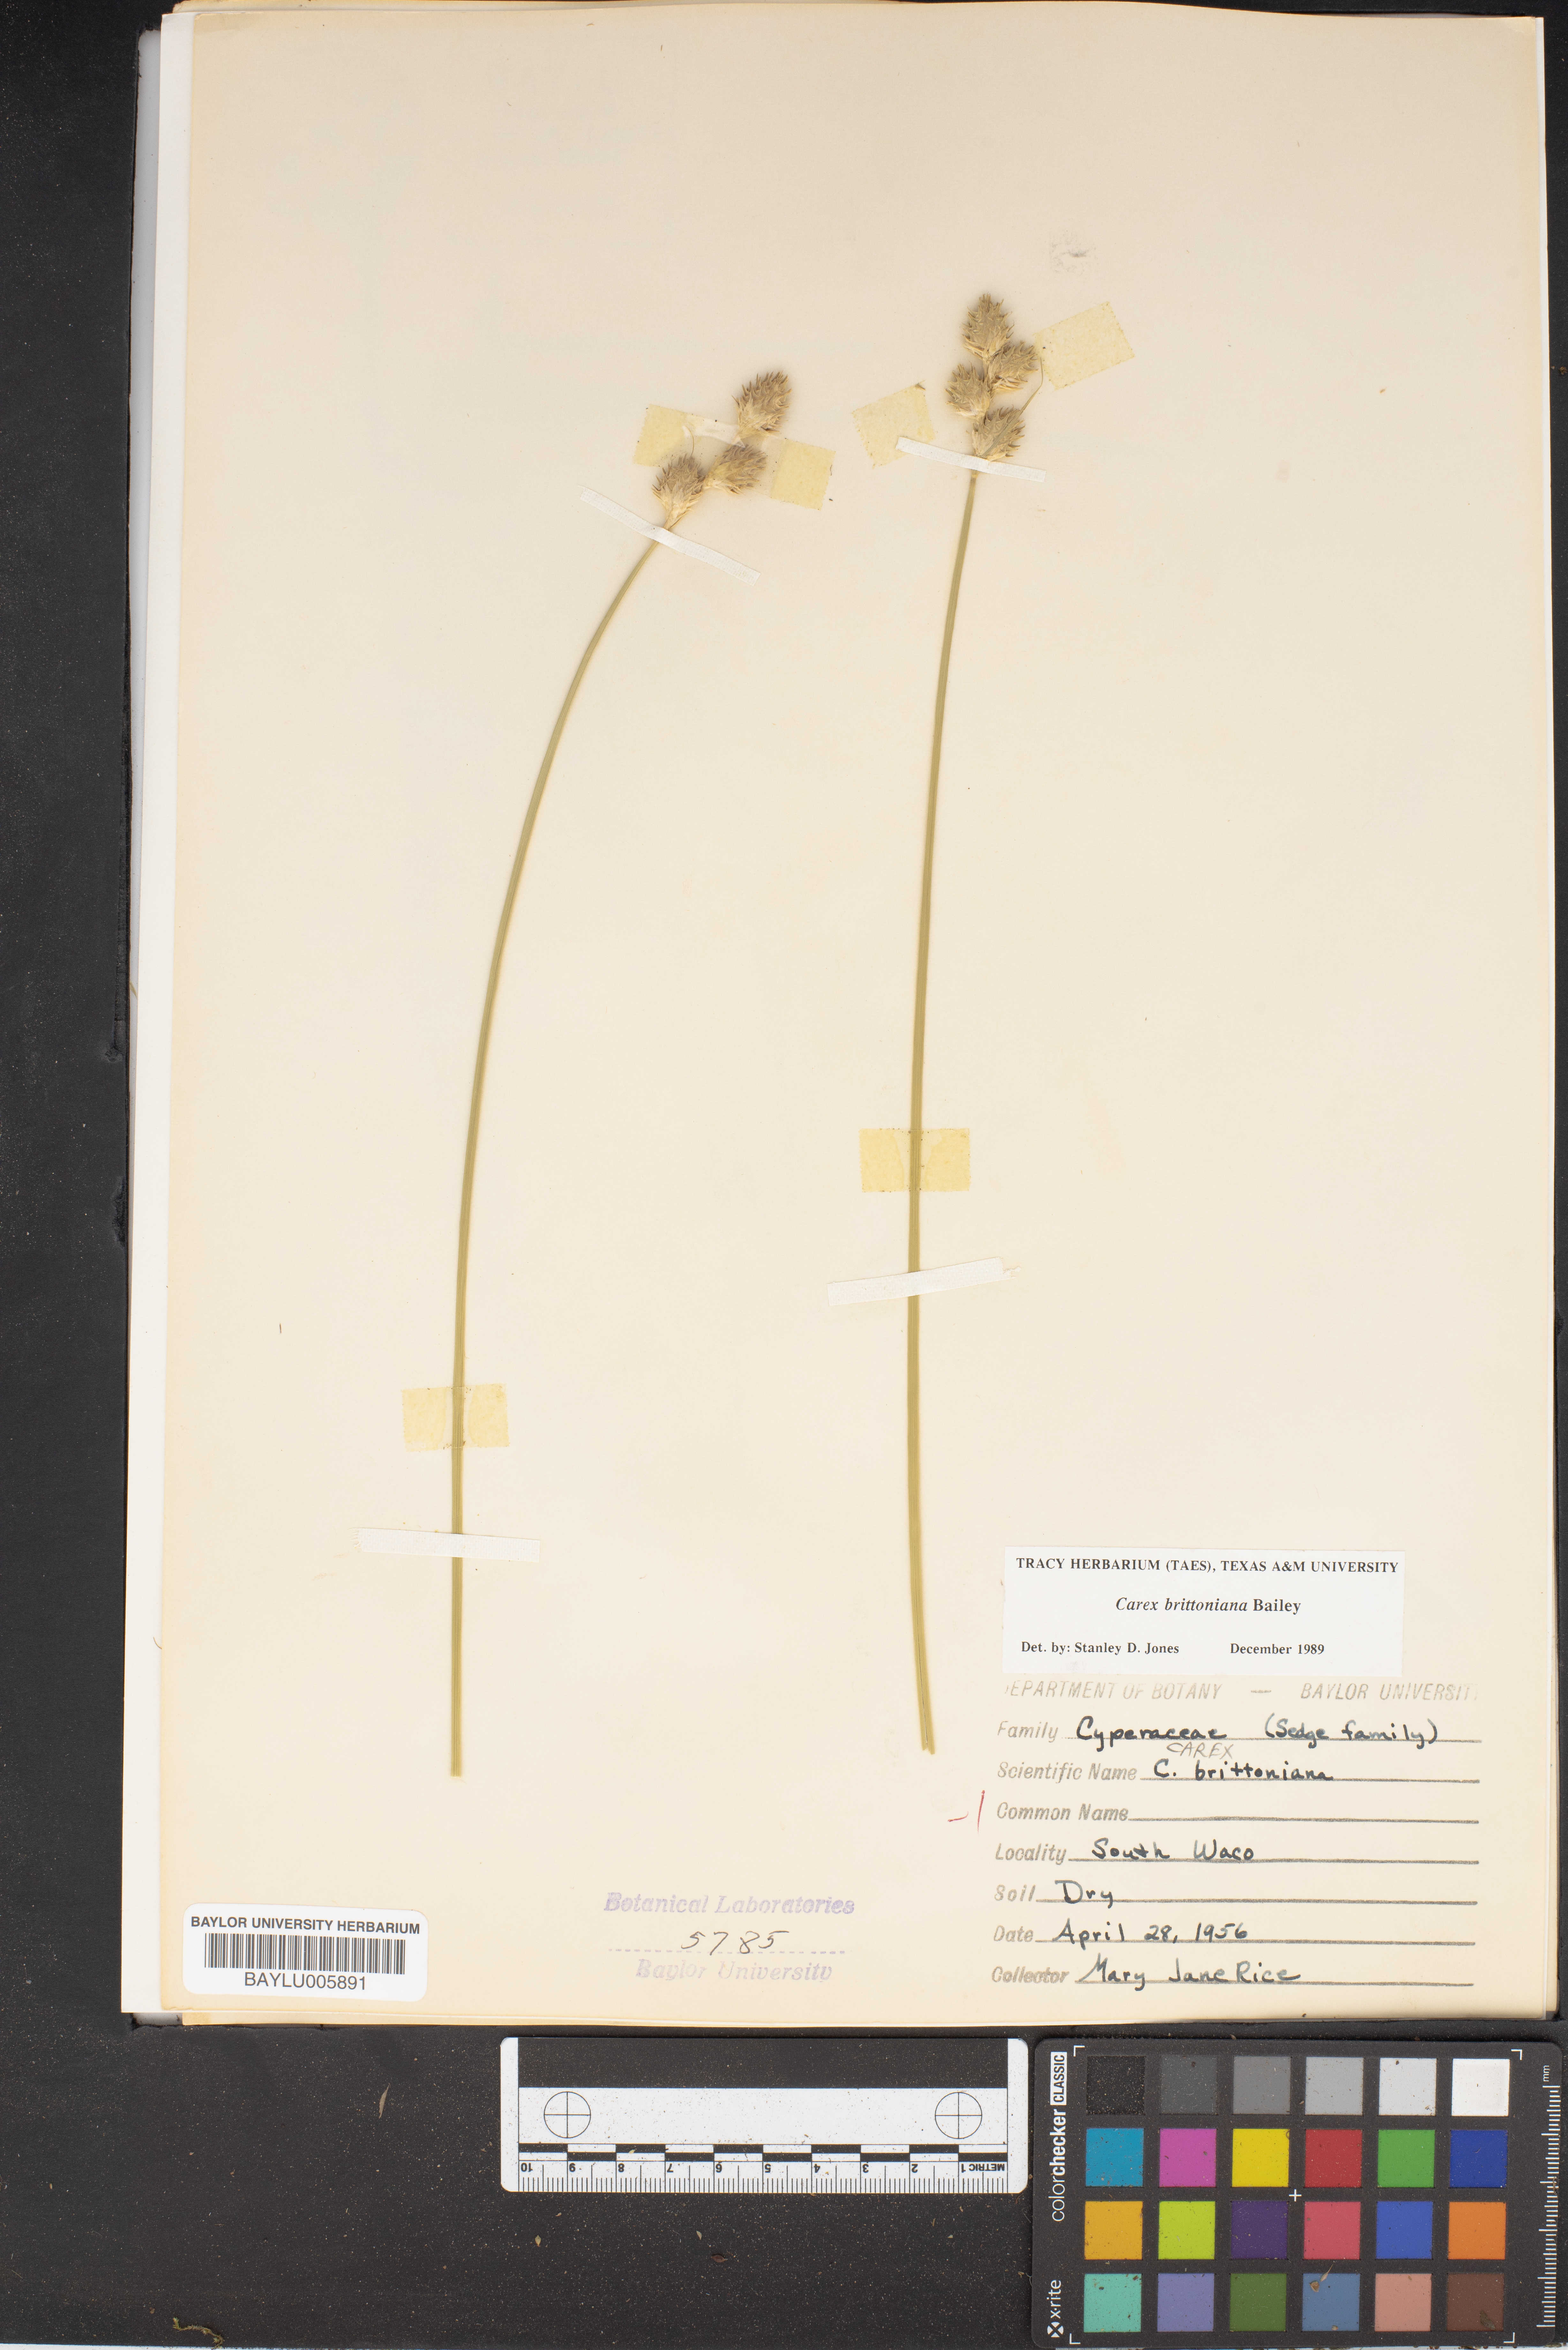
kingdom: Plantae
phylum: Tracheophyta
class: Liliopsida
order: Poales
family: Cyperaceae
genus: Carex
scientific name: Carex tetrastachya
